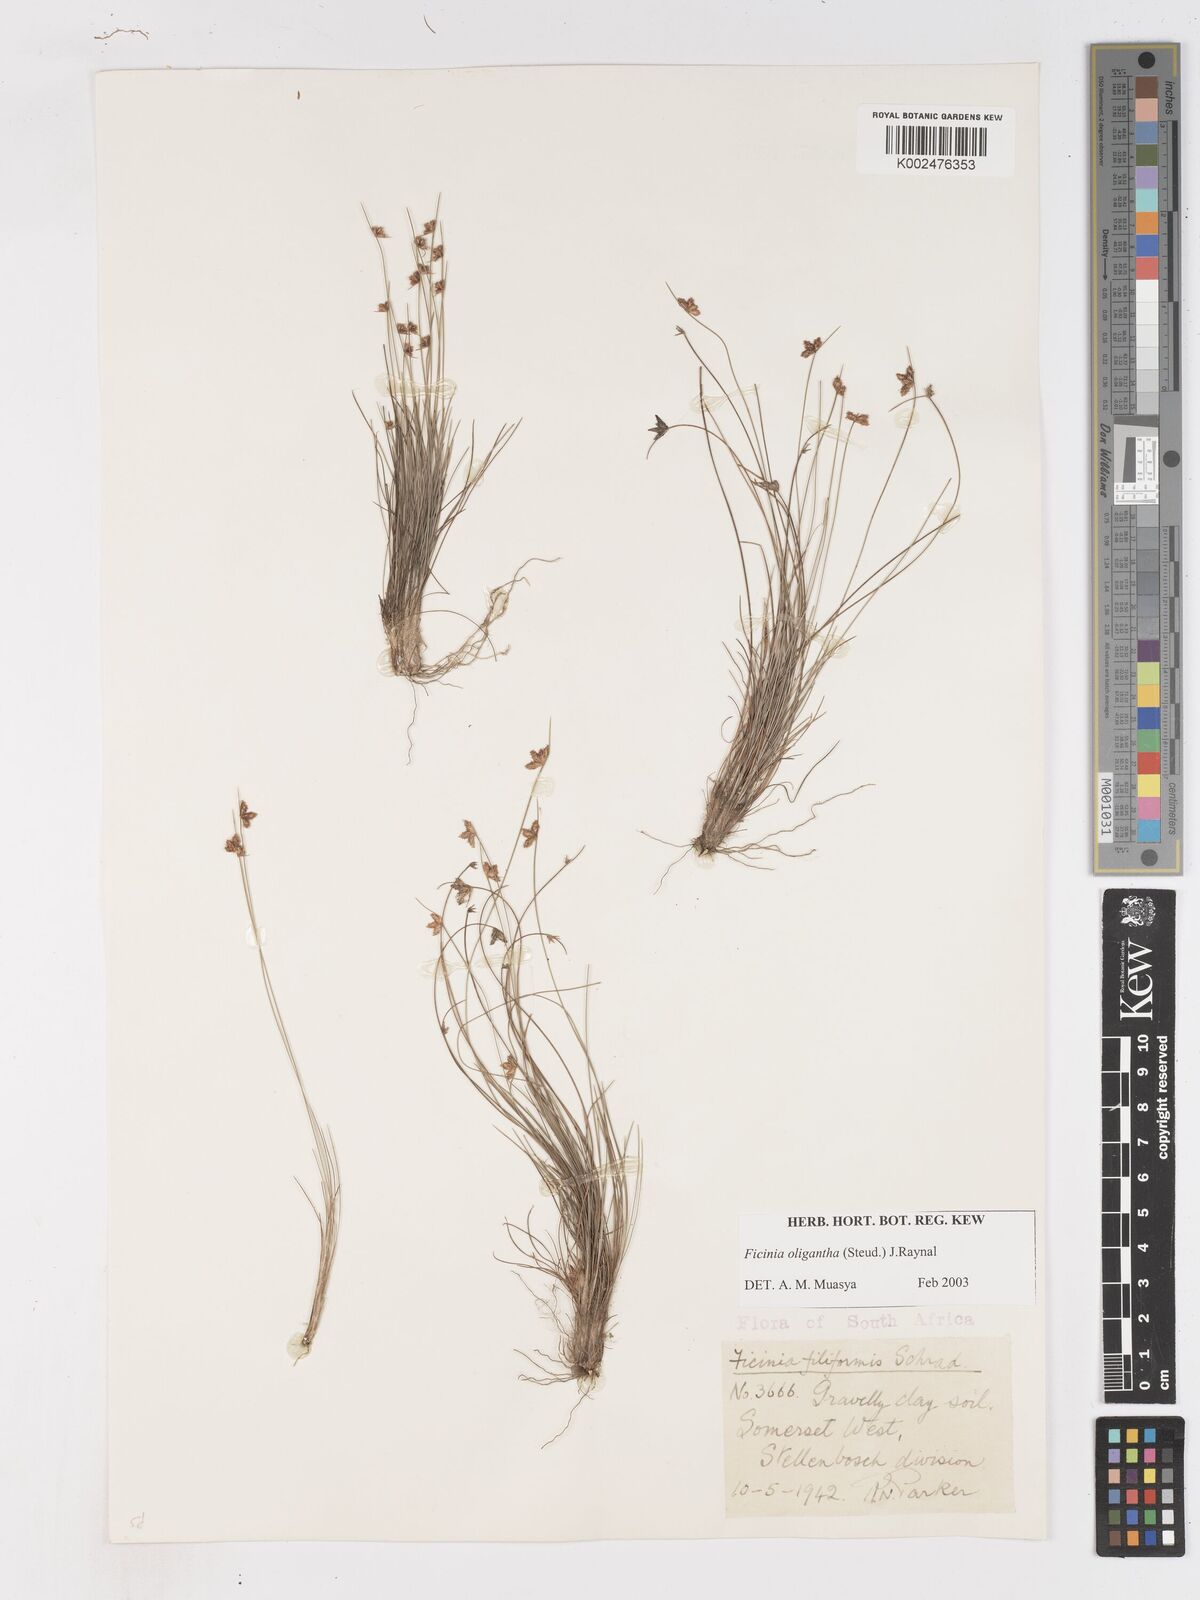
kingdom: Plantae
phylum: Tracheophyta
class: Liliopsida
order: Poales
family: Cyperaceae
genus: Ficinia
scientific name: Ficinia oligantha
